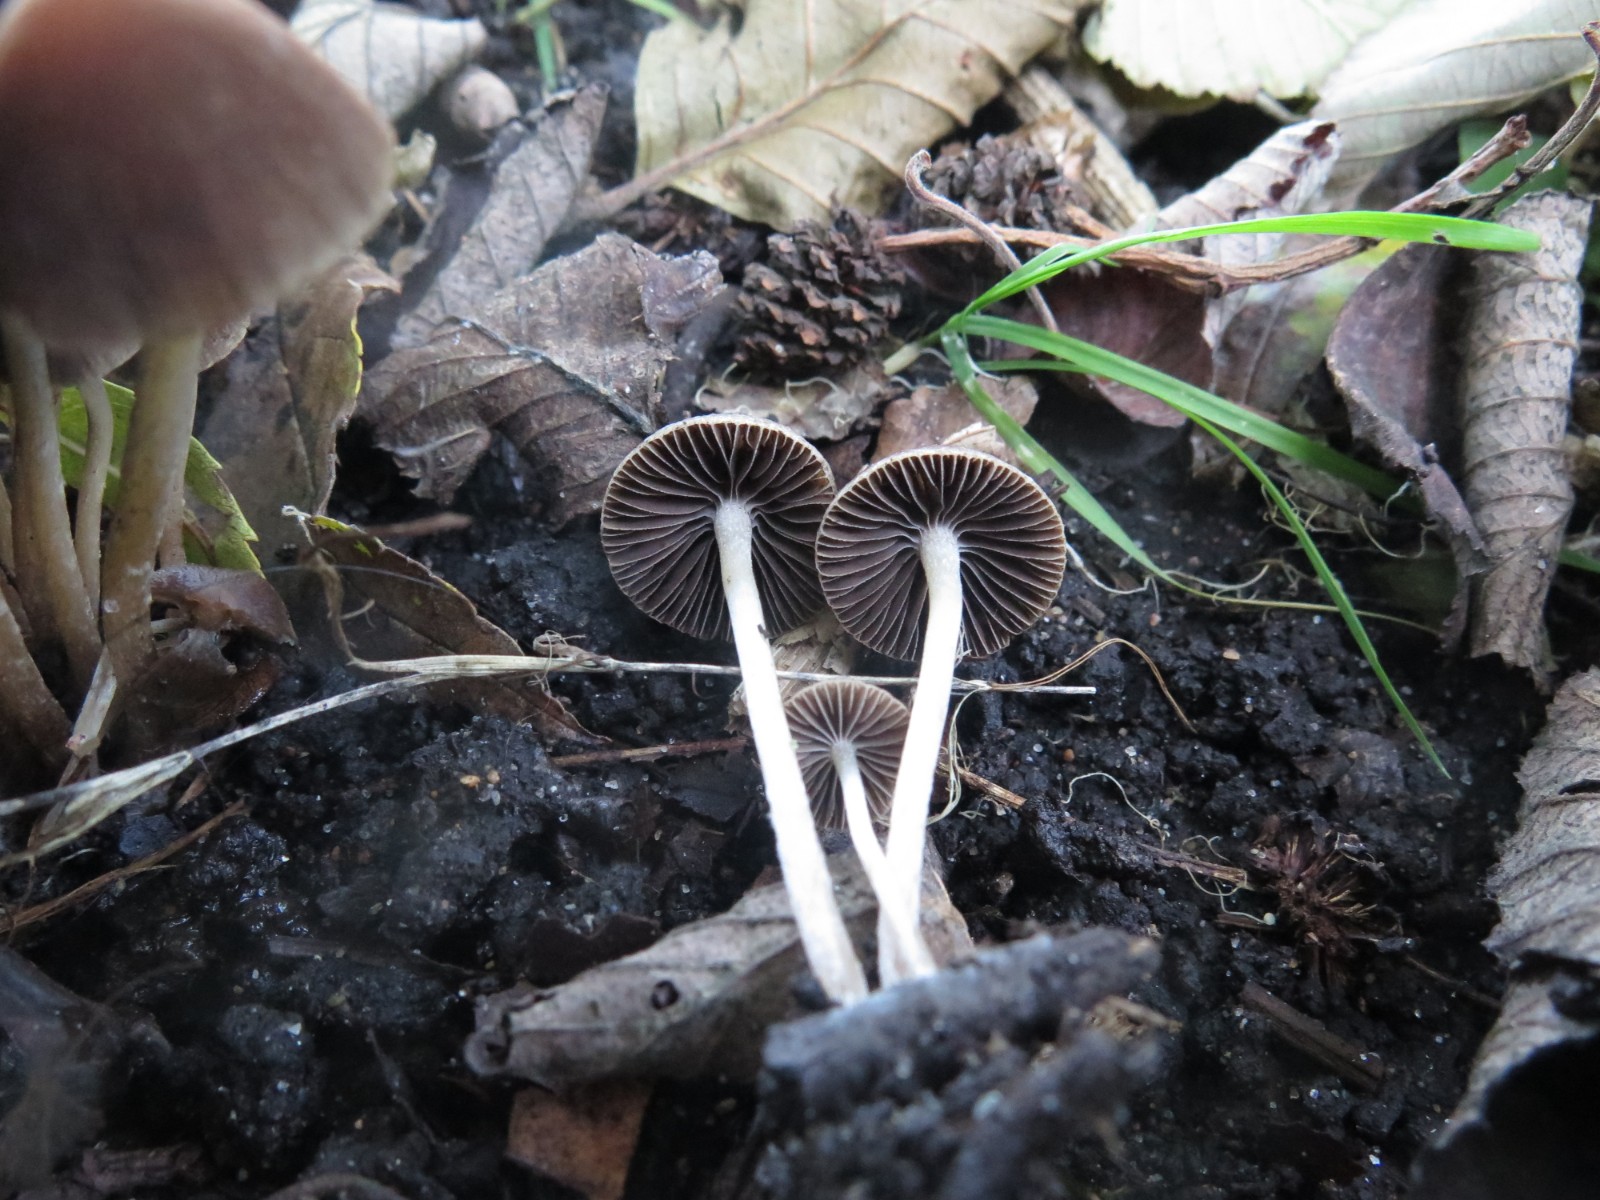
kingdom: Fungi
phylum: Basidiomycota
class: Agaricomycetes
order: Agaricales
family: Psathyrellaceae
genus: Britzelmayria
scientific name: Britzelmayria multipedata
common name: knippe-mørkhat
